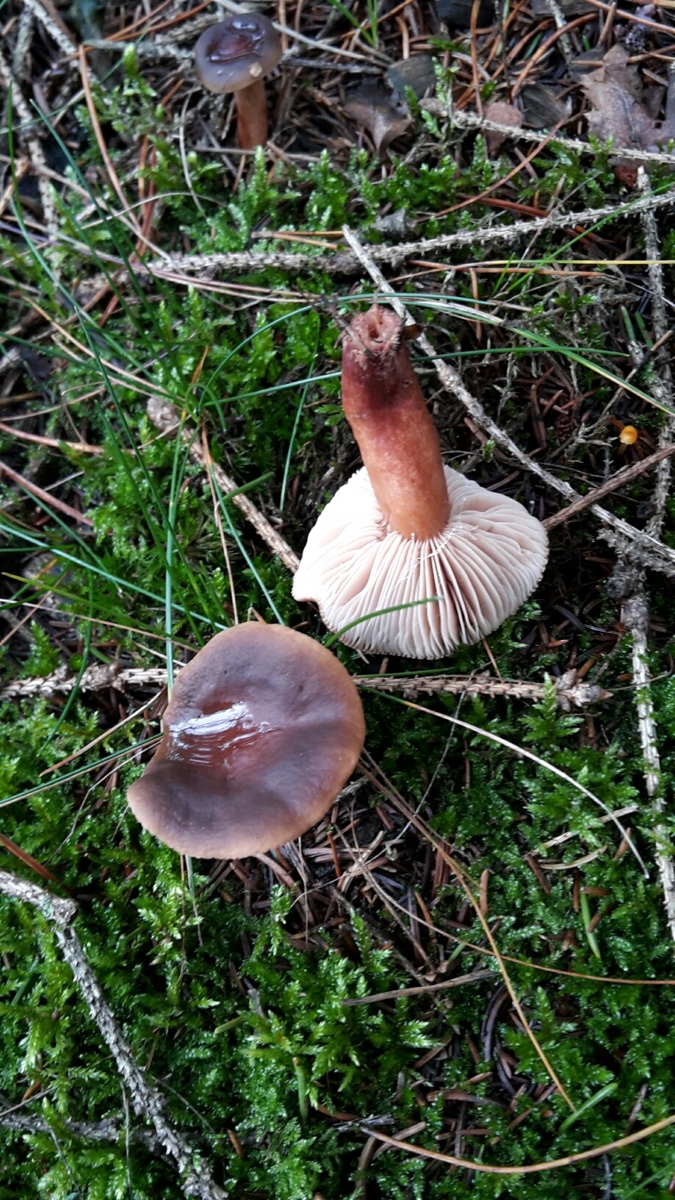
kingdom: Fungi
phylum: Basidiomycota
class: Agaricomycetes
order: Russulales
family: Russulaceae
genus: Lactarius
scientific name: Lactarius hepaticus
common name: leverbrun mælkehat
